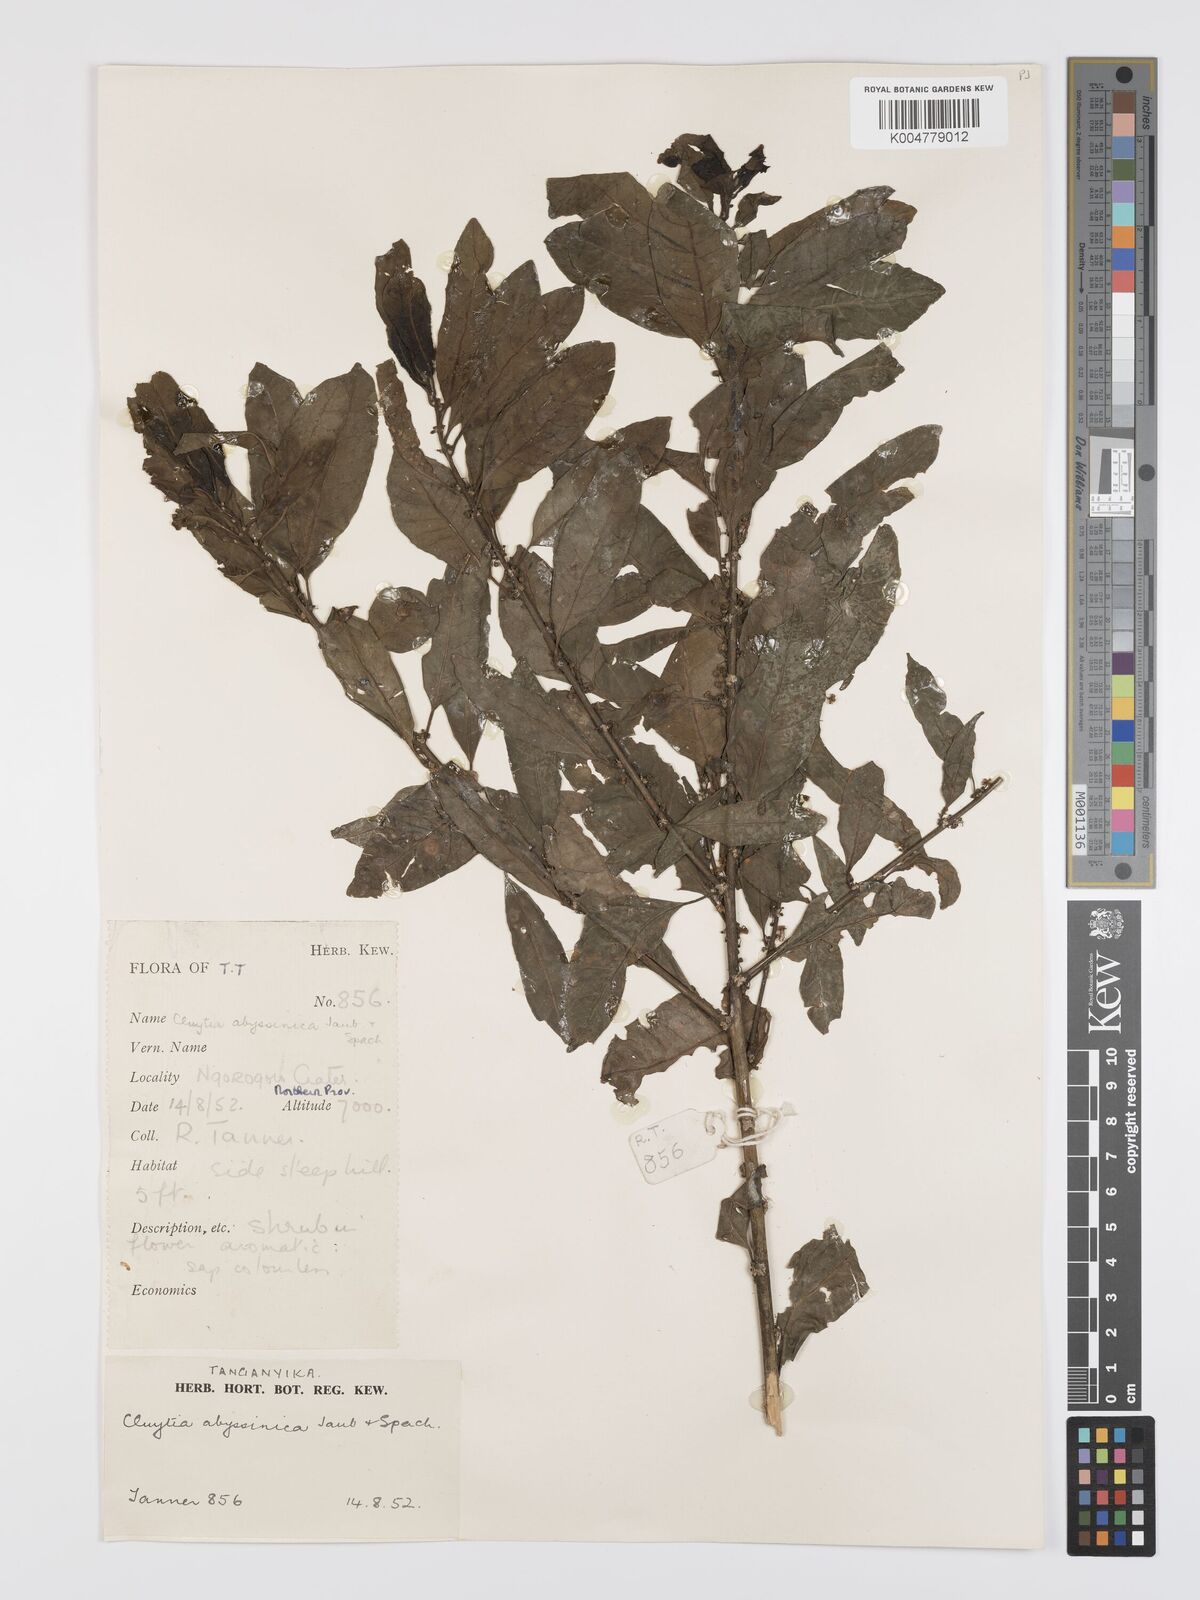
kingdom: Plantae
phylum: Tracheophyta
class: Magnoliopsida
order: Malpighiales
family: Peraceae
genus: Clutia
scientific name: Clutia abyssinica
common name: Large lightning bush
